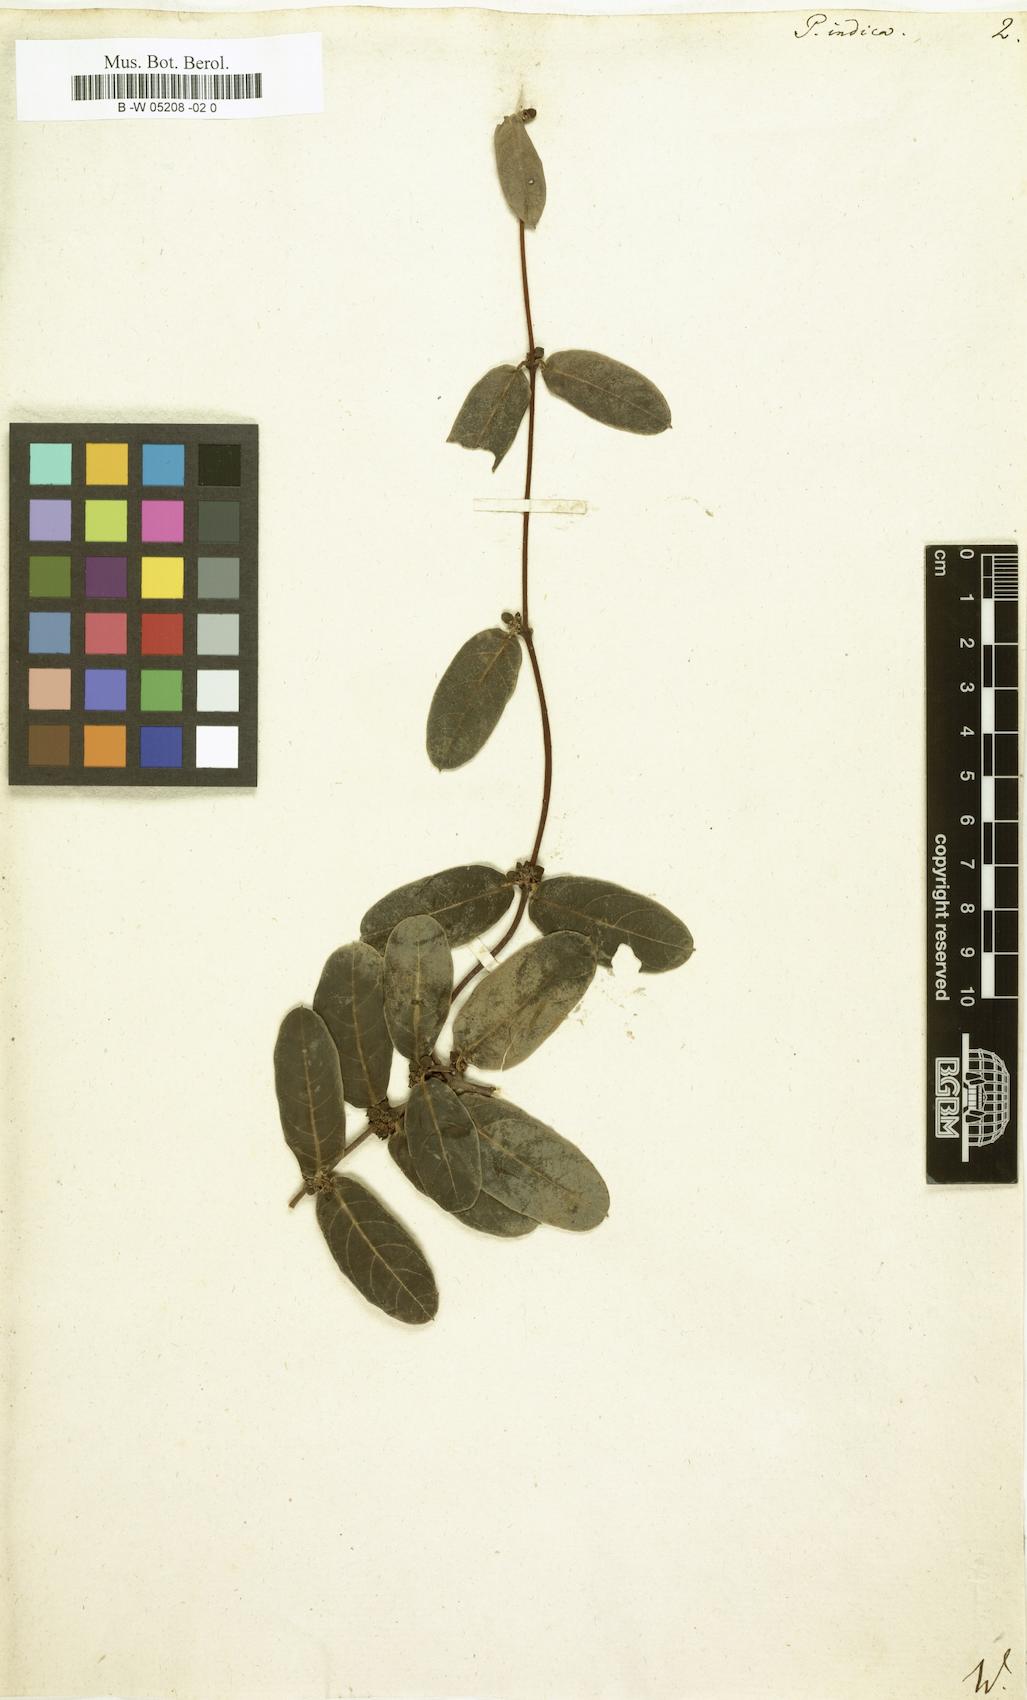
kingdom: Plantae
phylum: Tracheophyta
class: Magnoliopsida
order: Gentianales
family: Apocynaceae
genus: Hemidesmus
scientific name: Hemidesmus indicus
